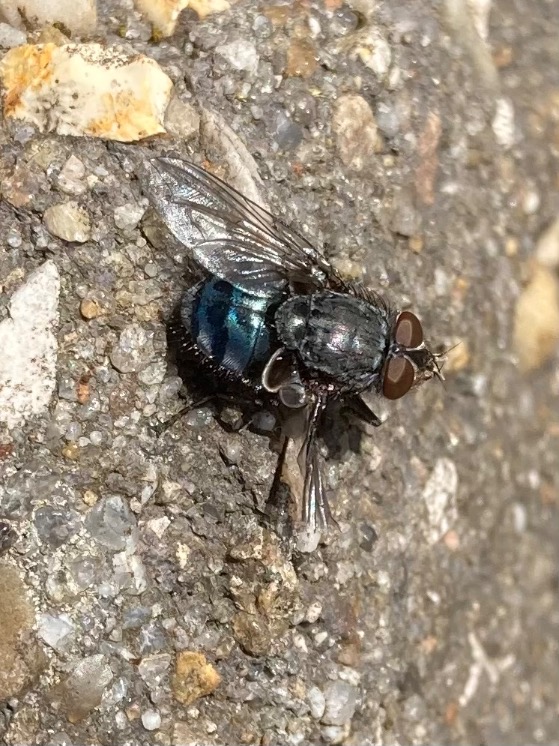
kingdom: Animalia
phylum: Arthropoda
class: Insecta
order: Diptera
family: Calliphoridae
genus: Calliphora
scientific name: Calliphora vicina
